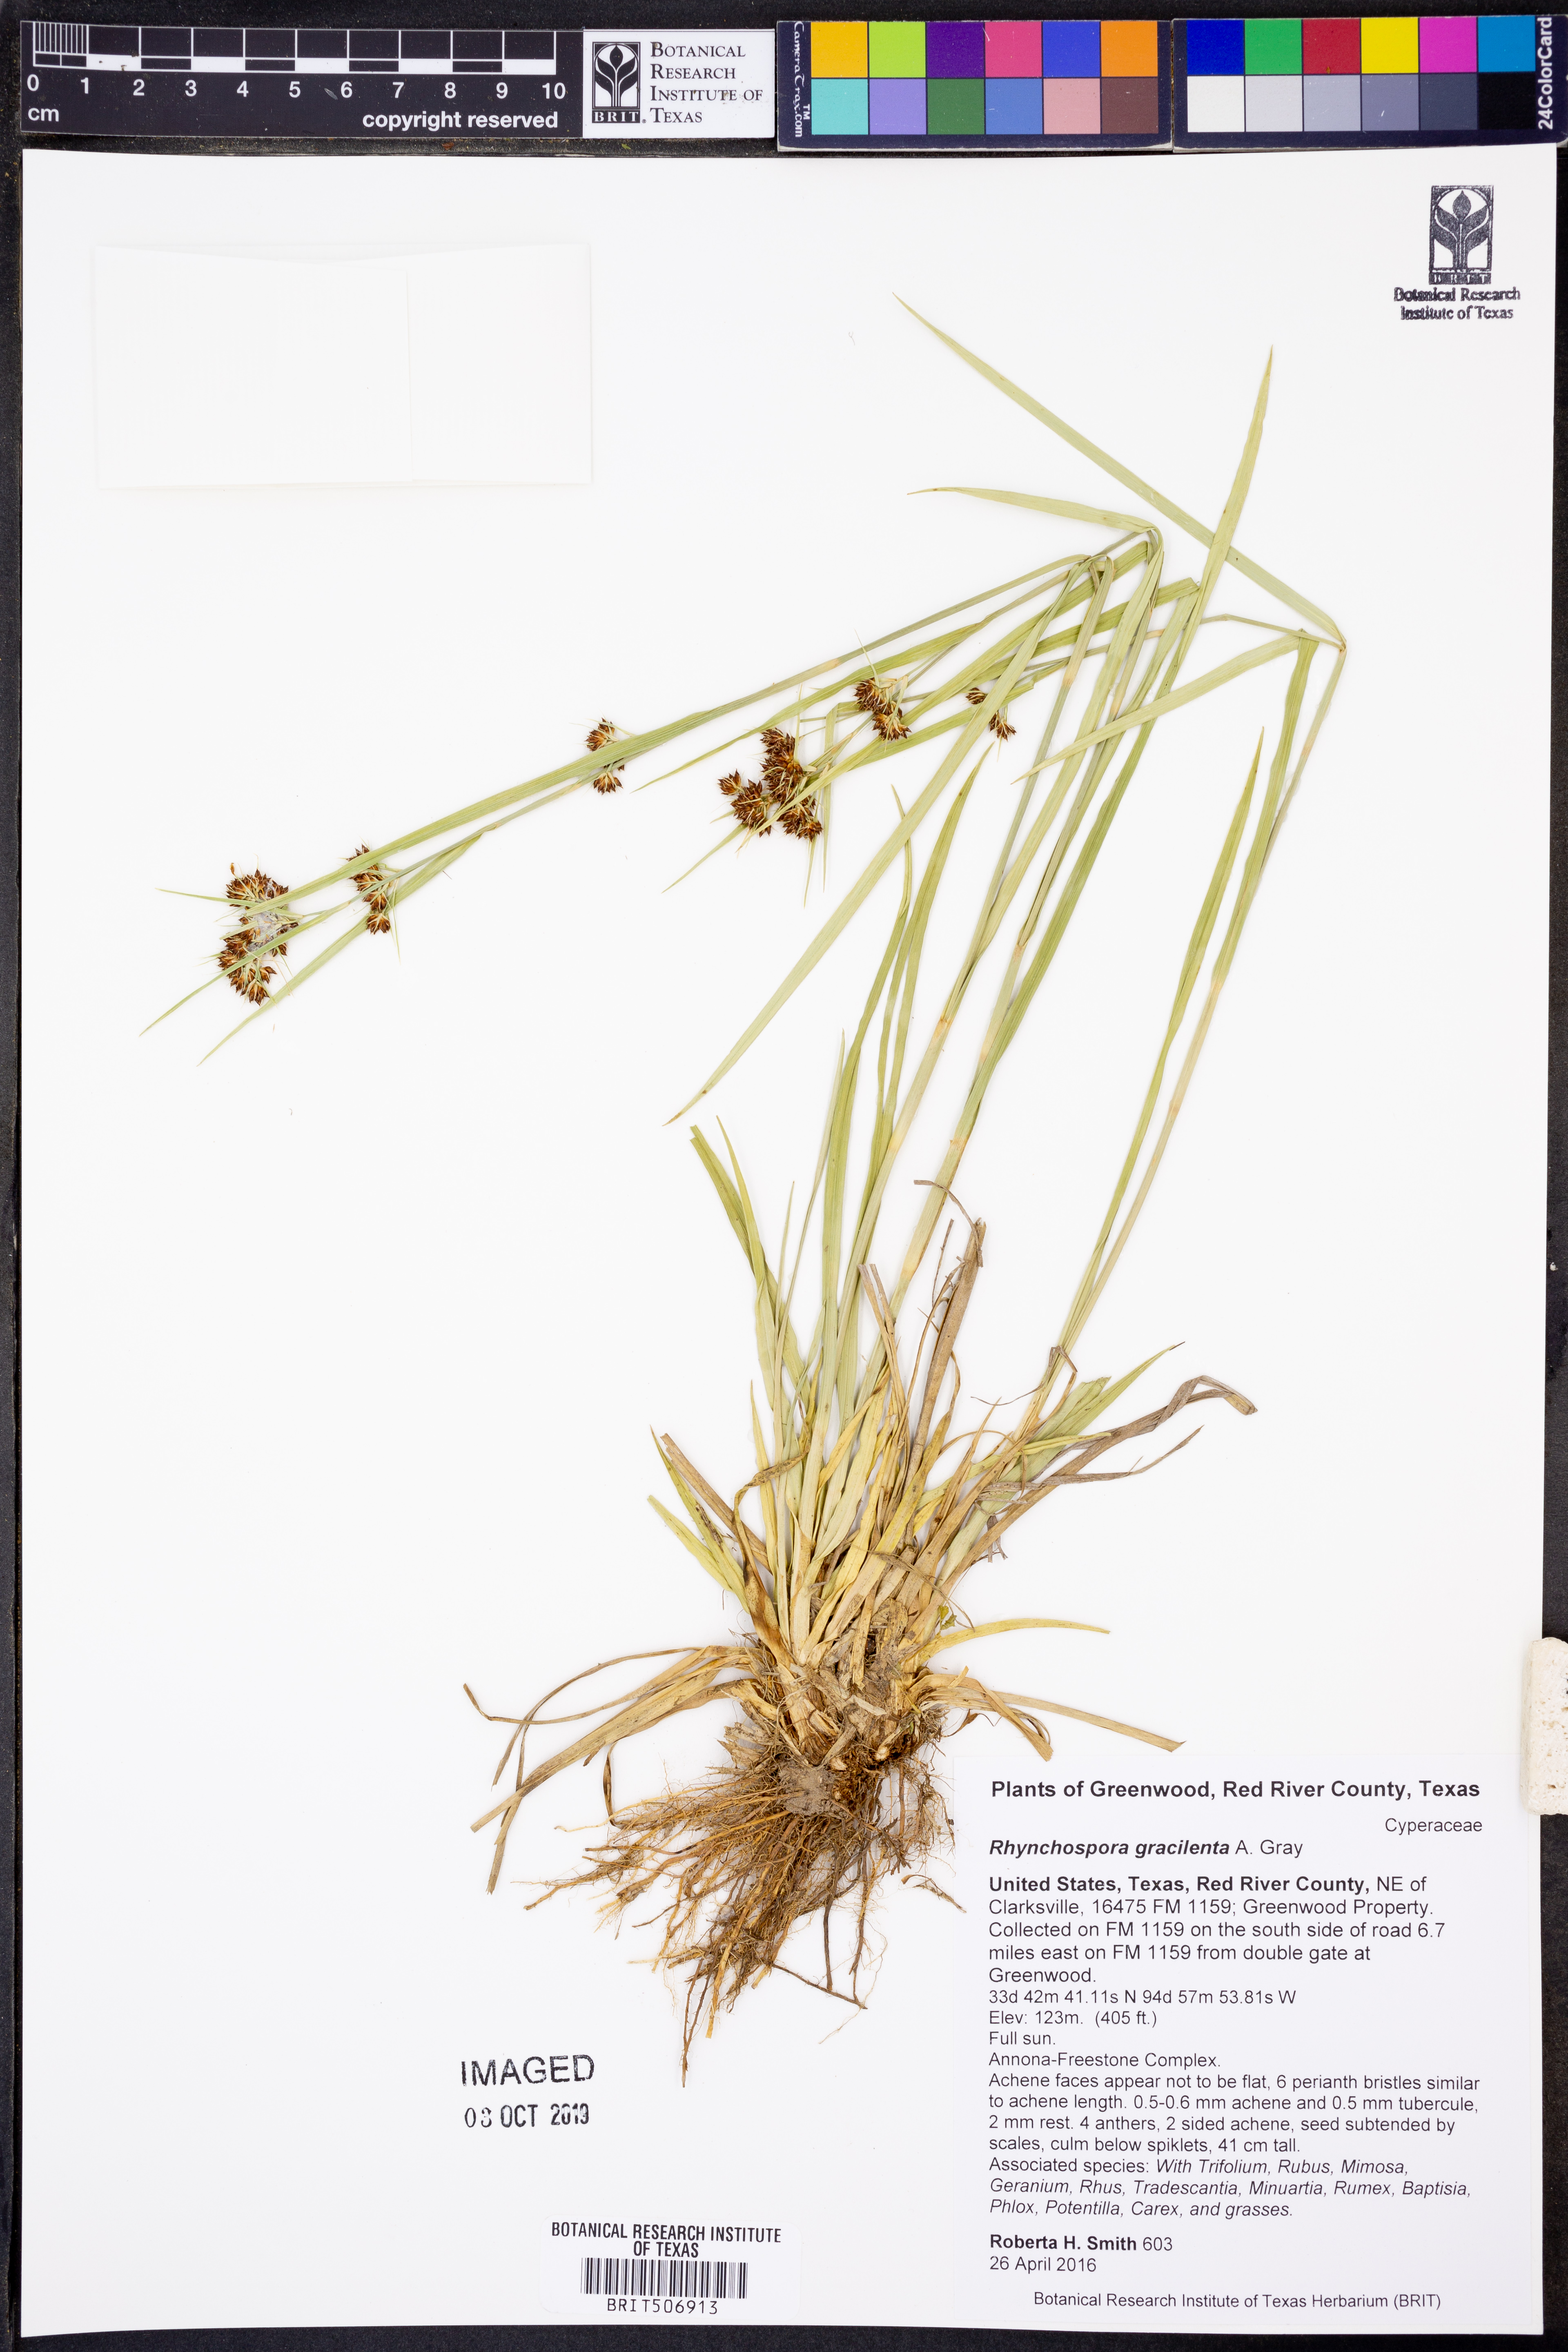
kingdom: Plantae
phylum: Tracheophyta
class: Liliopsida
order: Poales
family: Cyperaceae
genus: Rhynchospora
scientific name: Rhynchospora gracilenta
